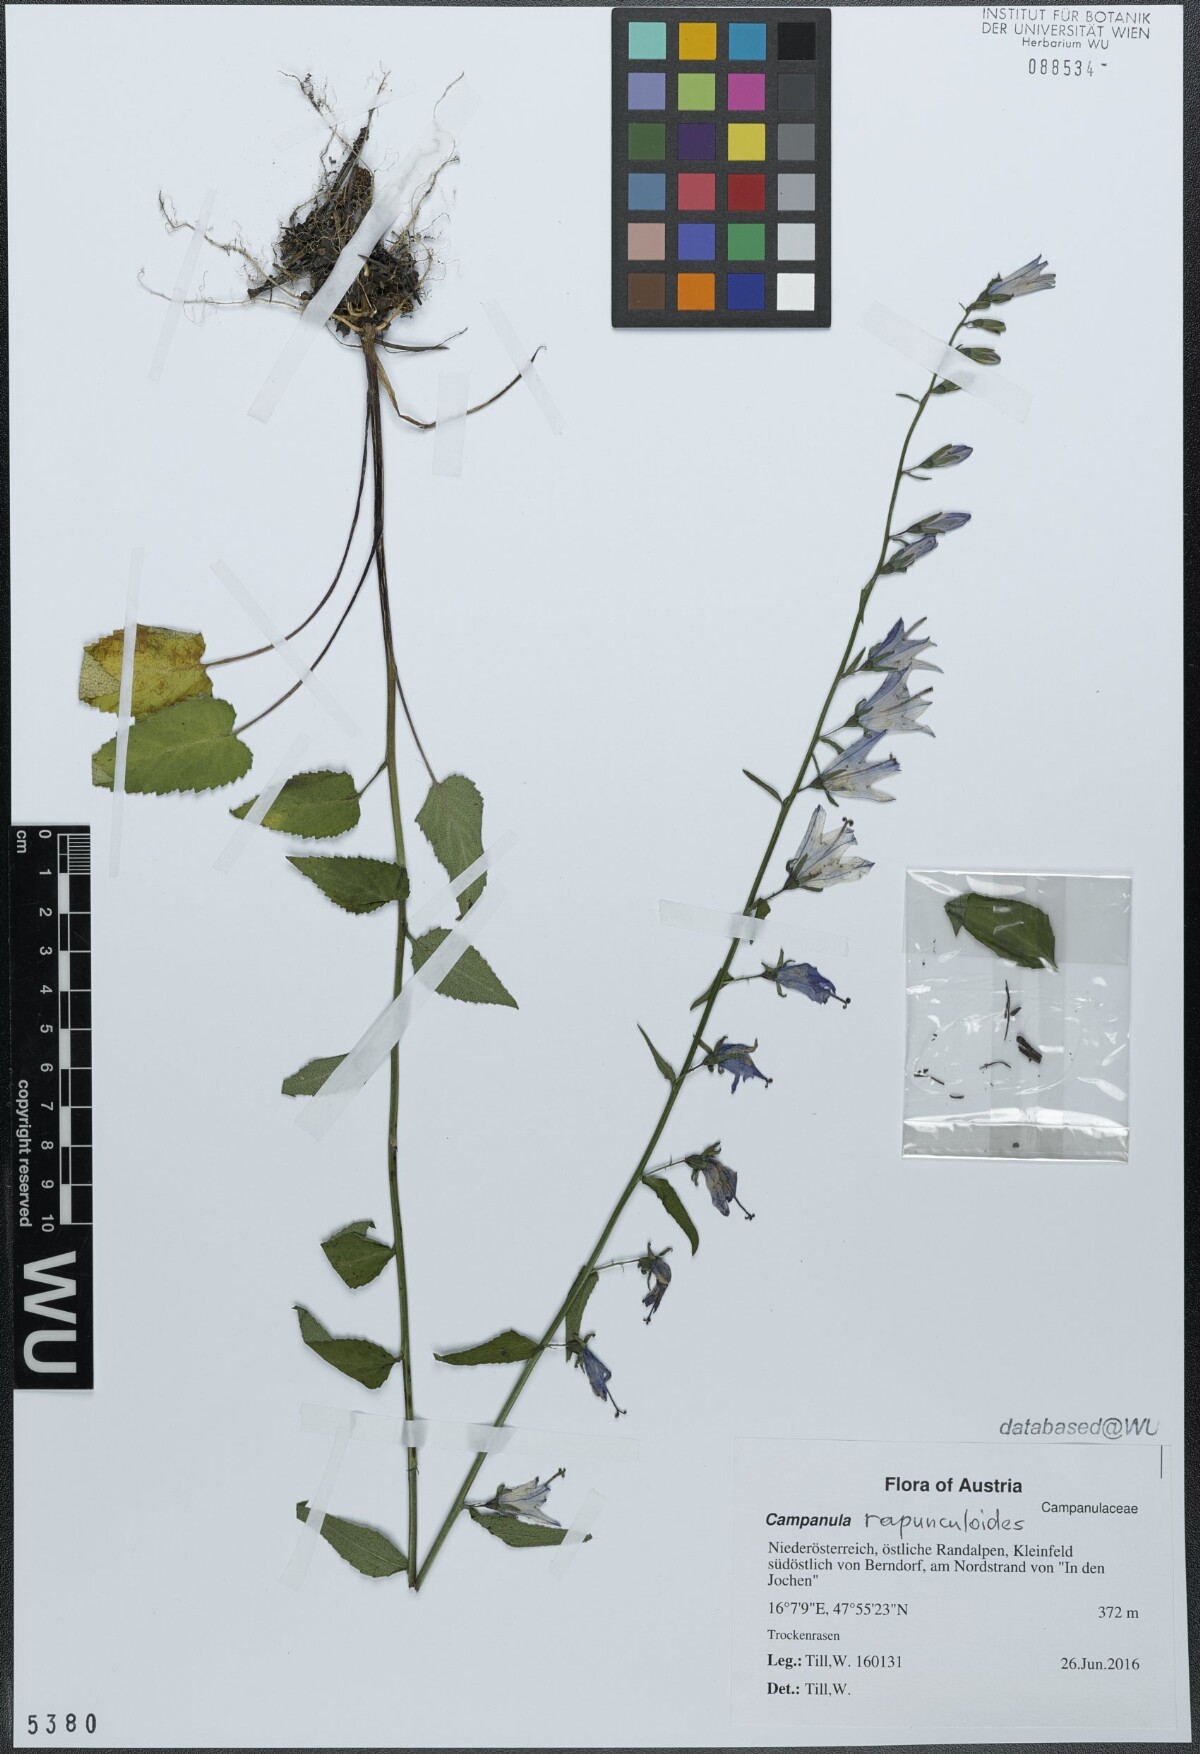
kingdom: Plantae
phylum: Tracheophyta
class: Magnoliopsida
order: Asterales
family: Campanulaceae
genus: Campanula
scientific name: Campanula rapunculoides
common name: Creeping bellflower
